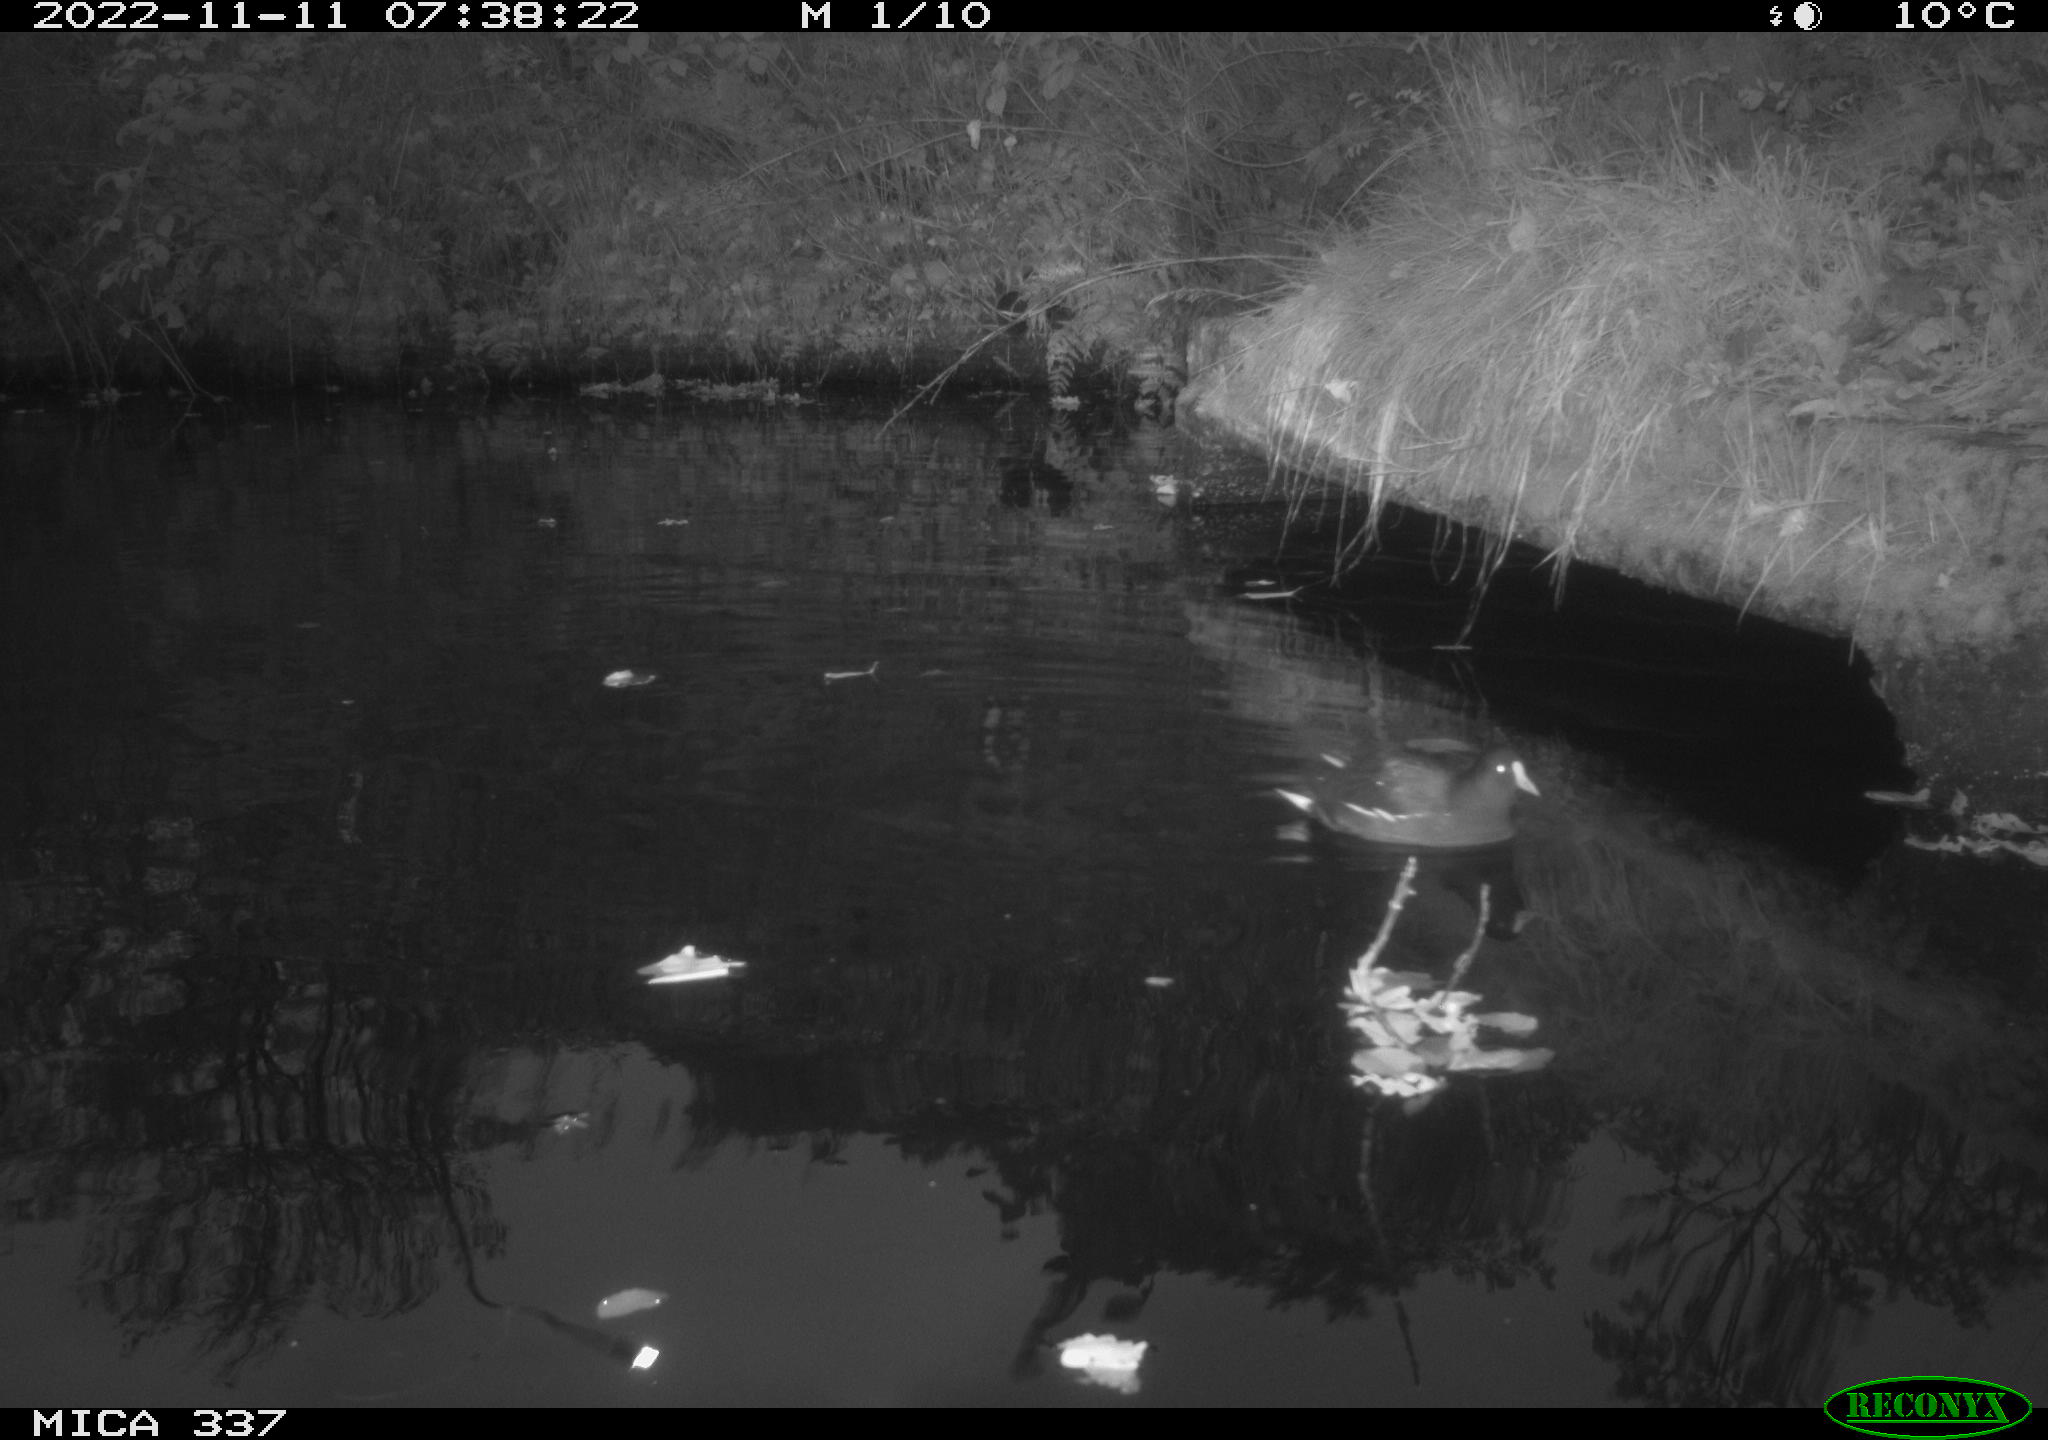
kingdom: Animalia
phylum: Chordata
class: Aves
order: Gruiformes
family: Rallidae
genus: Gallinula
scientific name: Gallinula chloropus
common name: Common moorhen
